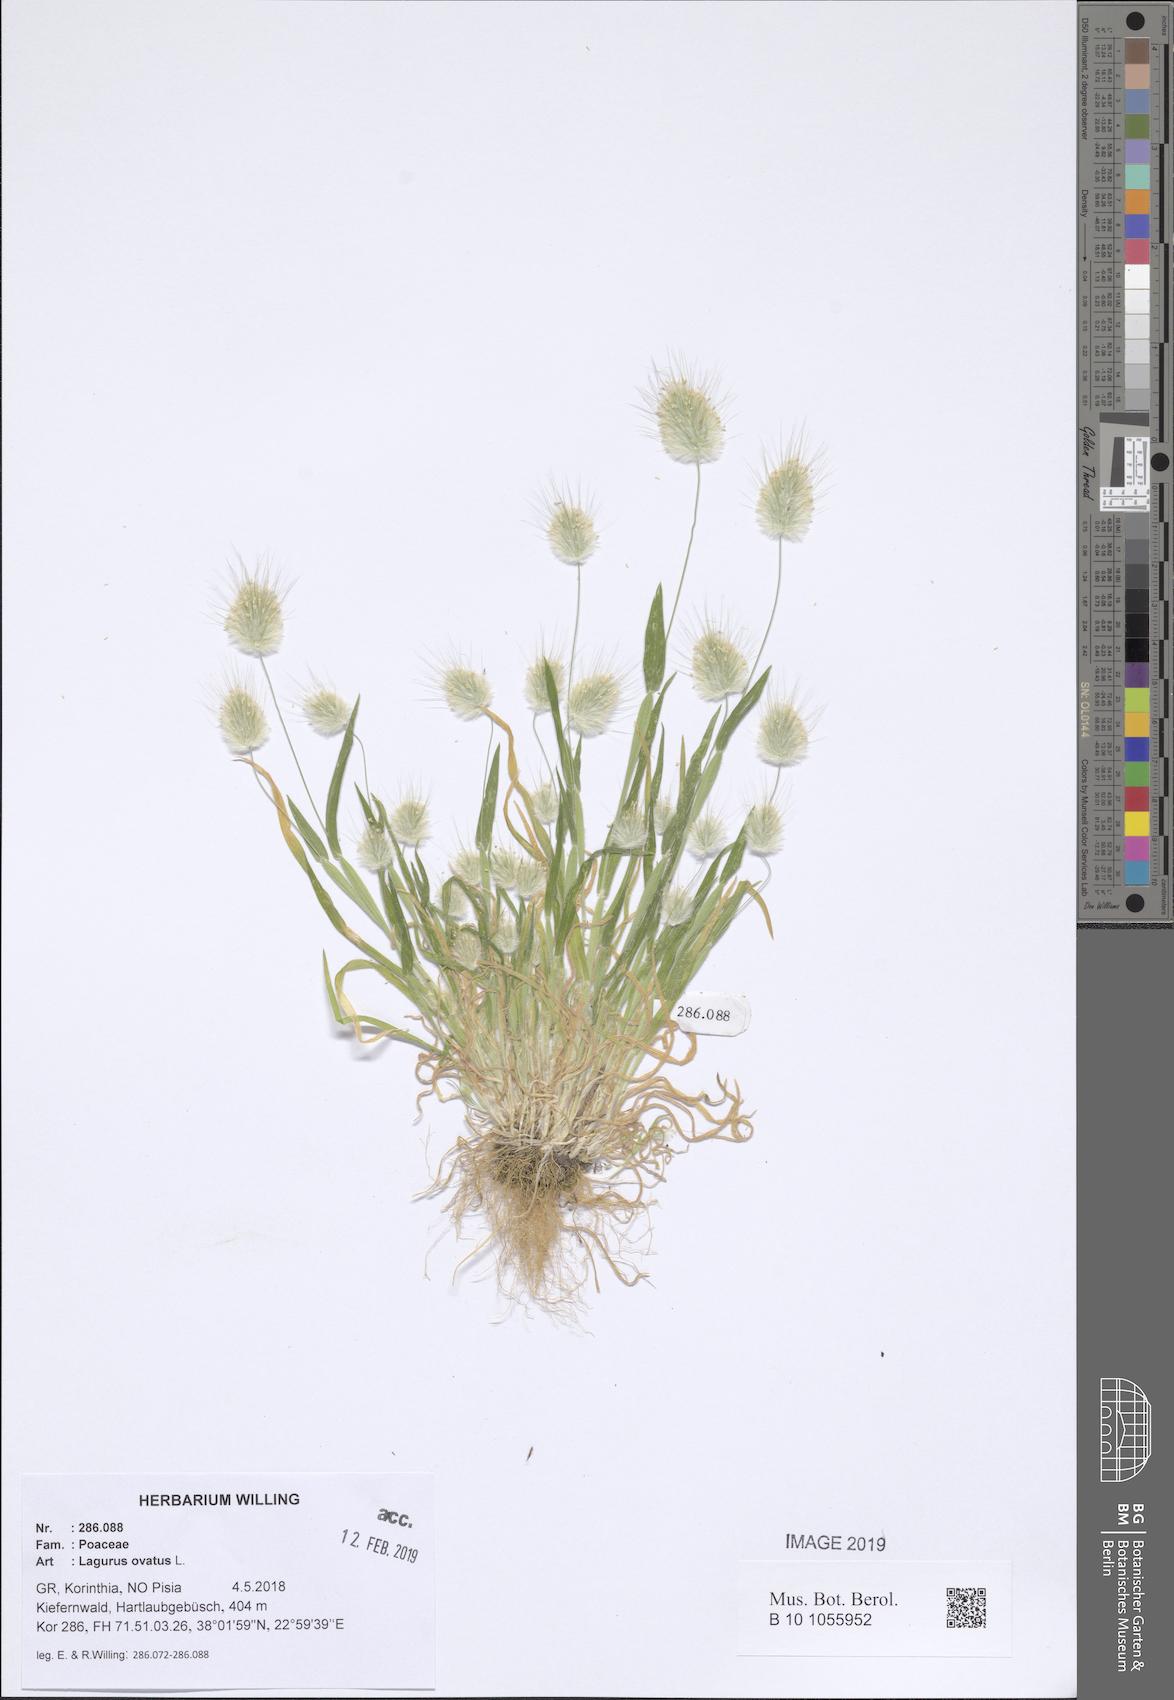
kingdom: Plantae
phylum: Tracheophyta
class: Liliopsida
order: Poales
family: Poaceae
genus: Lagurus
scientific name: Lagurus ovatus
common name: Hare's-tail
